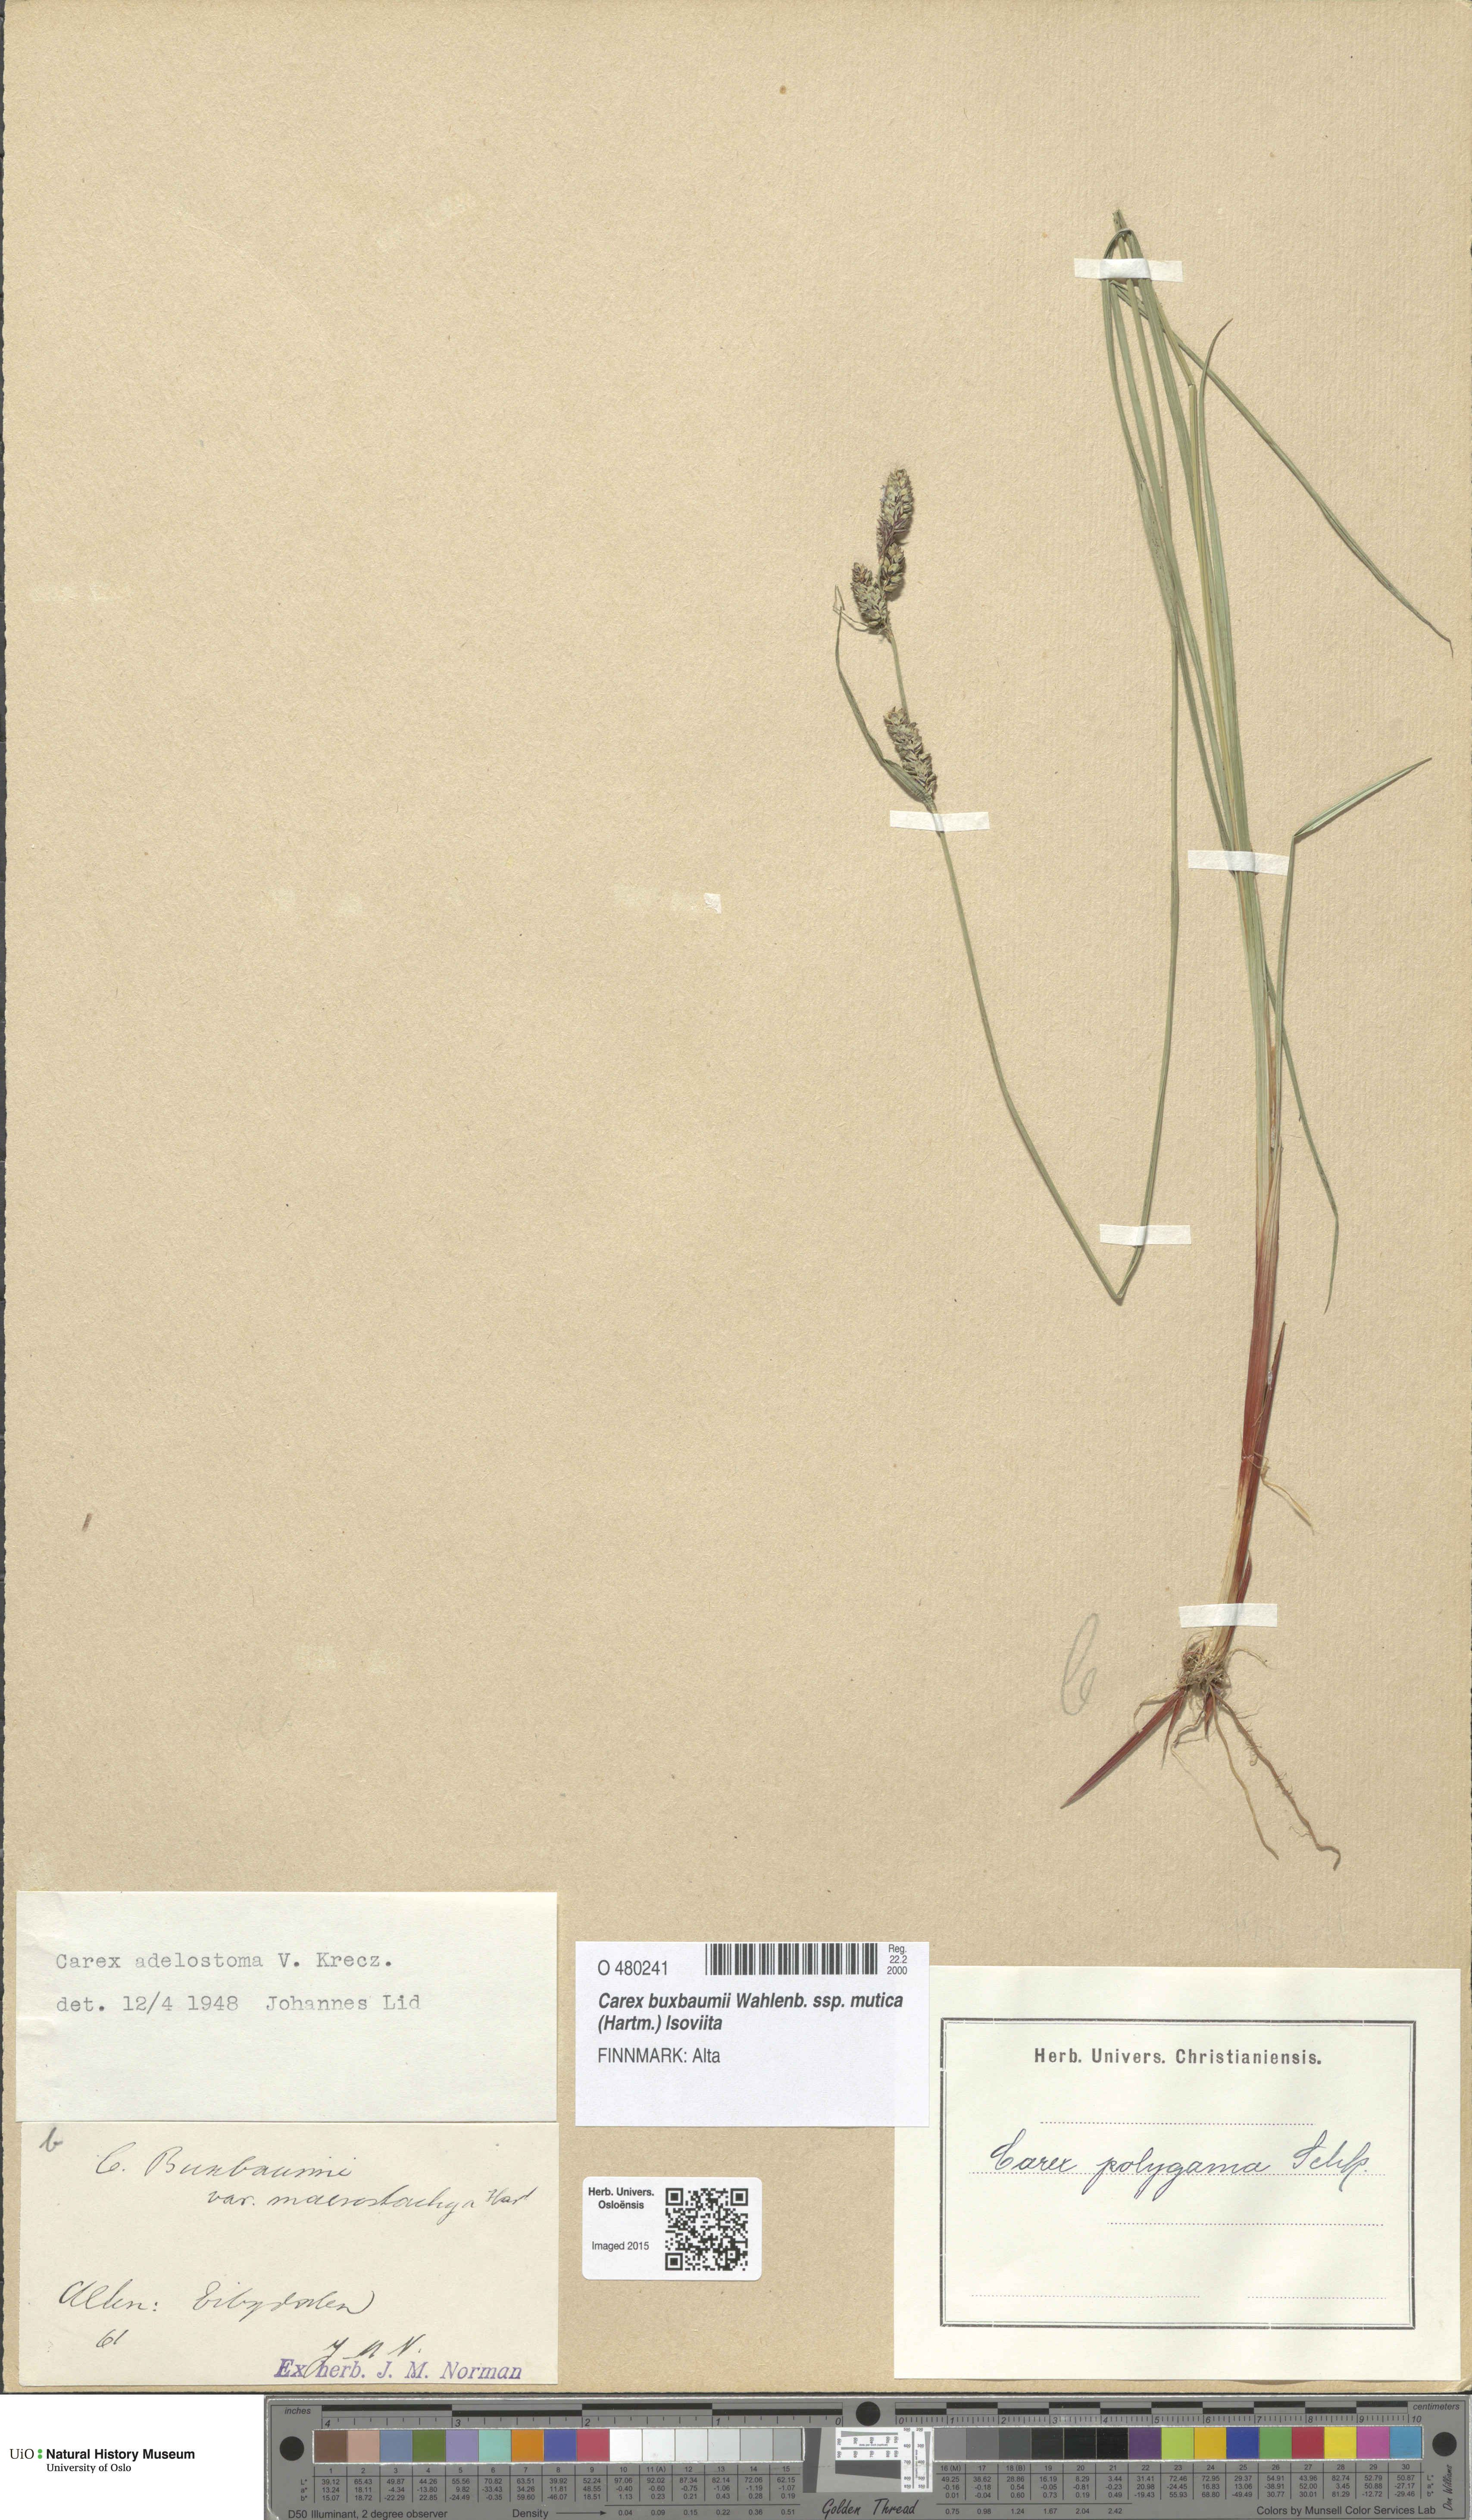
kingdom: Plantae
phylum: Tracheophyta
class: Liliopsida
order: Poales
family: Cyperaceae
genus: Carex
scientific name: Carex adelostoma
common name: Circumpolar sedge
